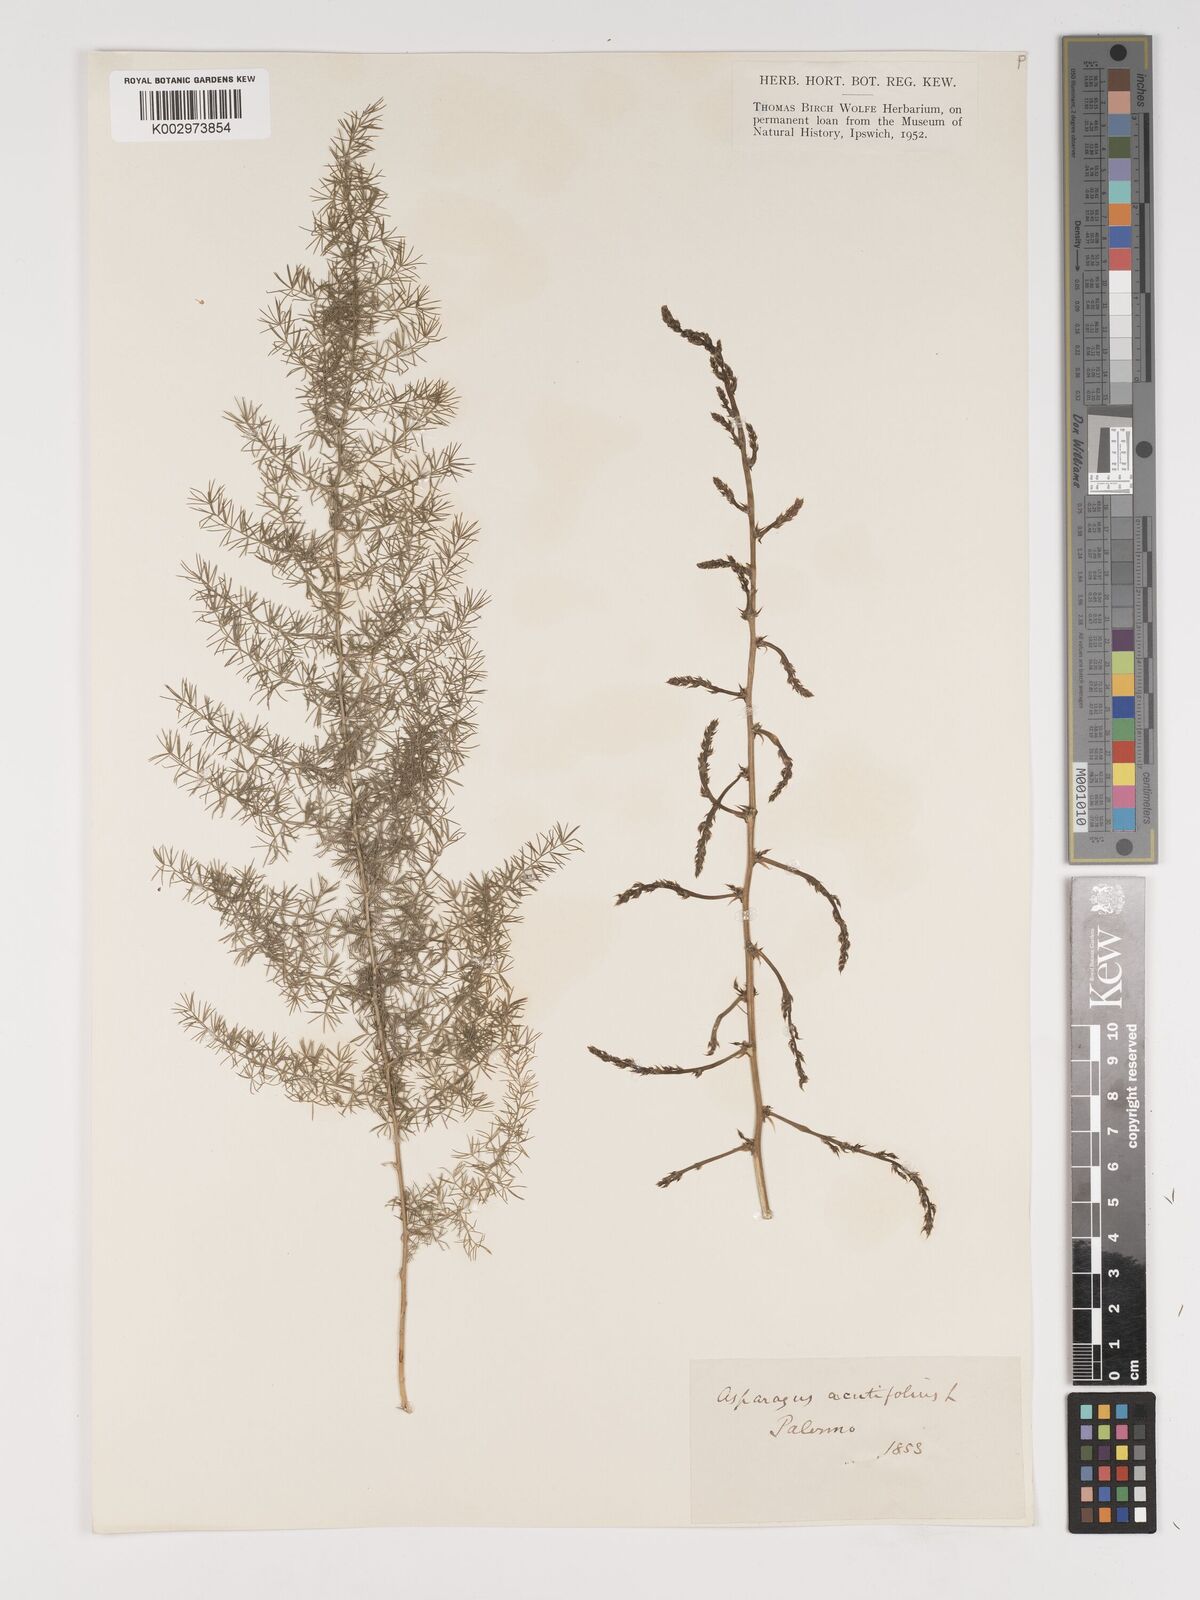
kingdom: Plantae
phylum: Tracheophyta
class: Liliopsida
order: Asparagales
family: Asparagaceae
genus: Asparagus
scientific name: Asparagus acutifolius
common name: Wild asparagus
